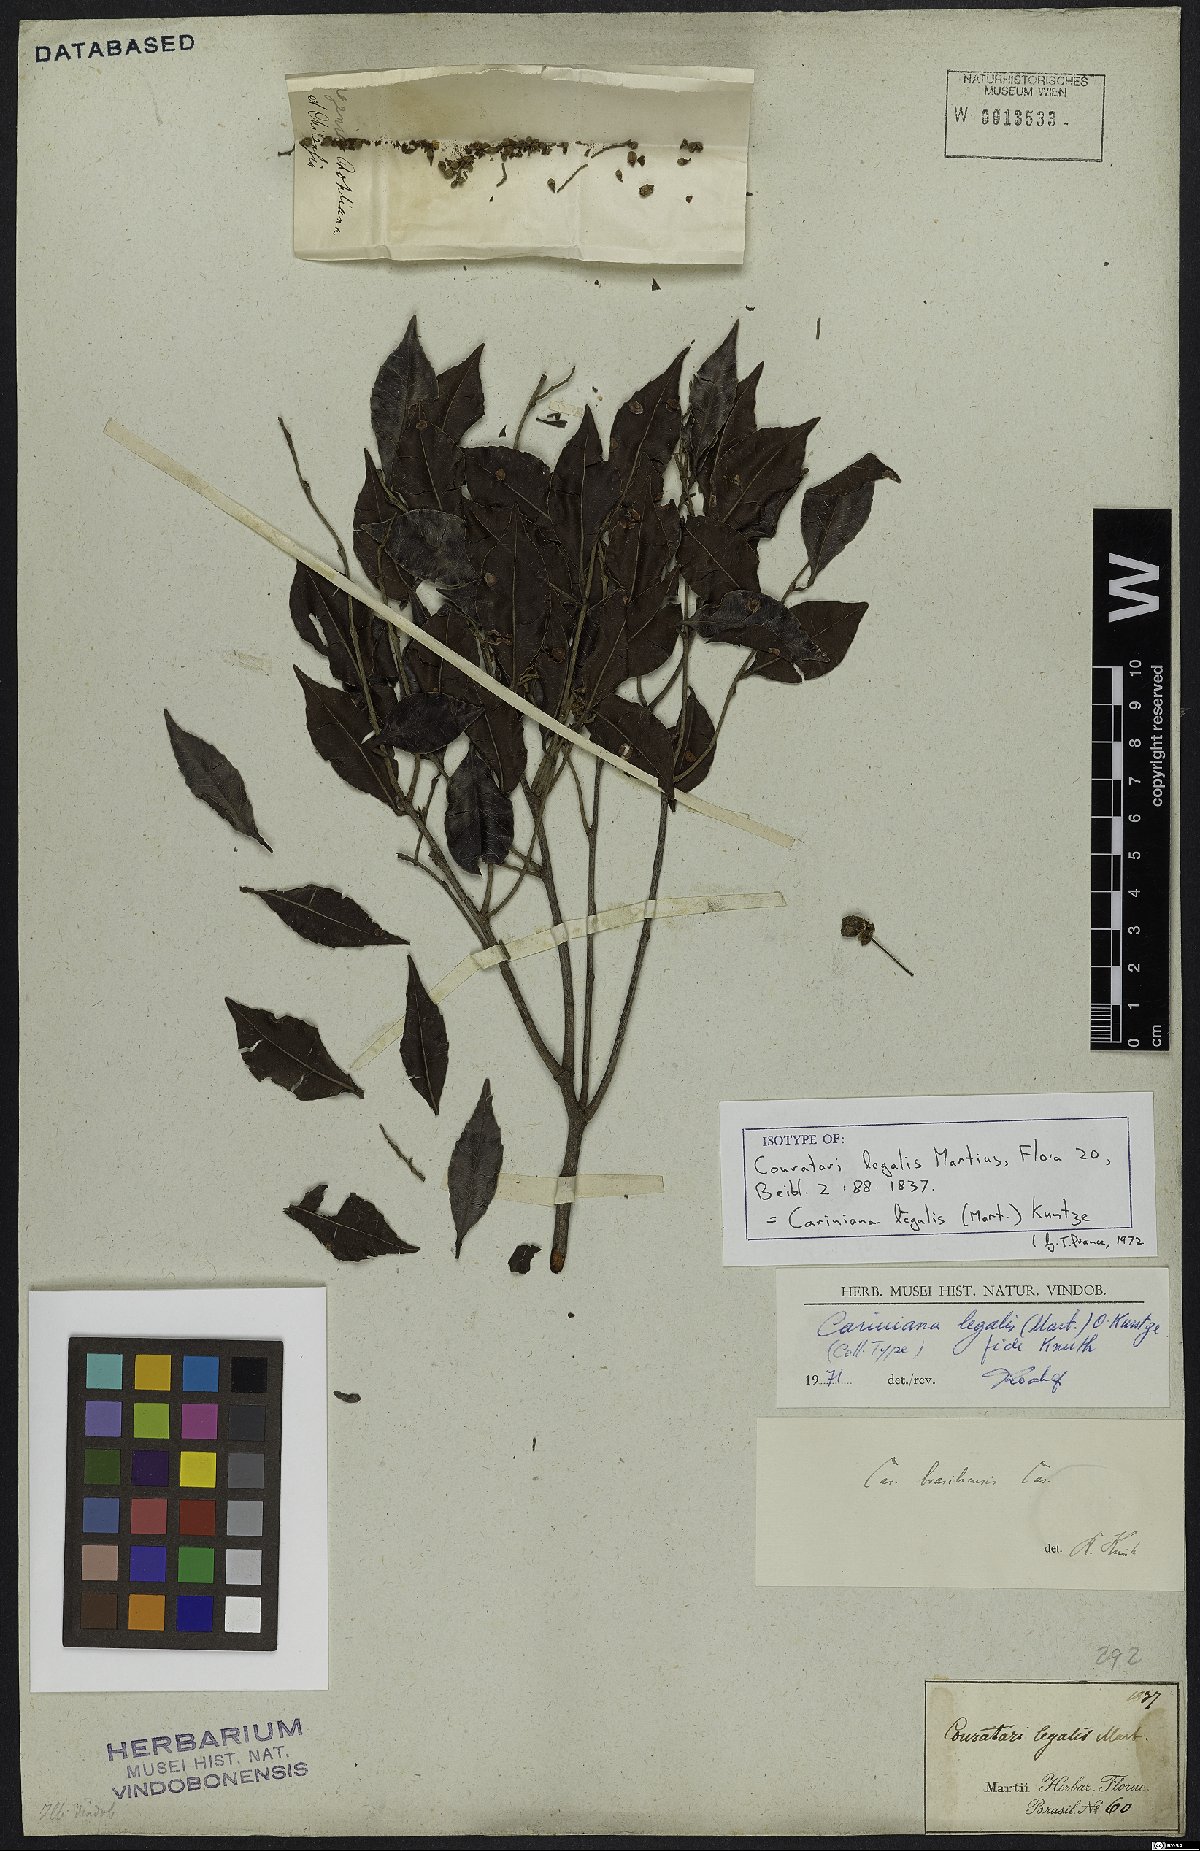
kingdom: Plantae
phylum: Tracheophyta
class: Magnoliopsida
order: Ericales
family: Lecythidaceae
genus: Cariniana
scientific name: Cariniana legalis
